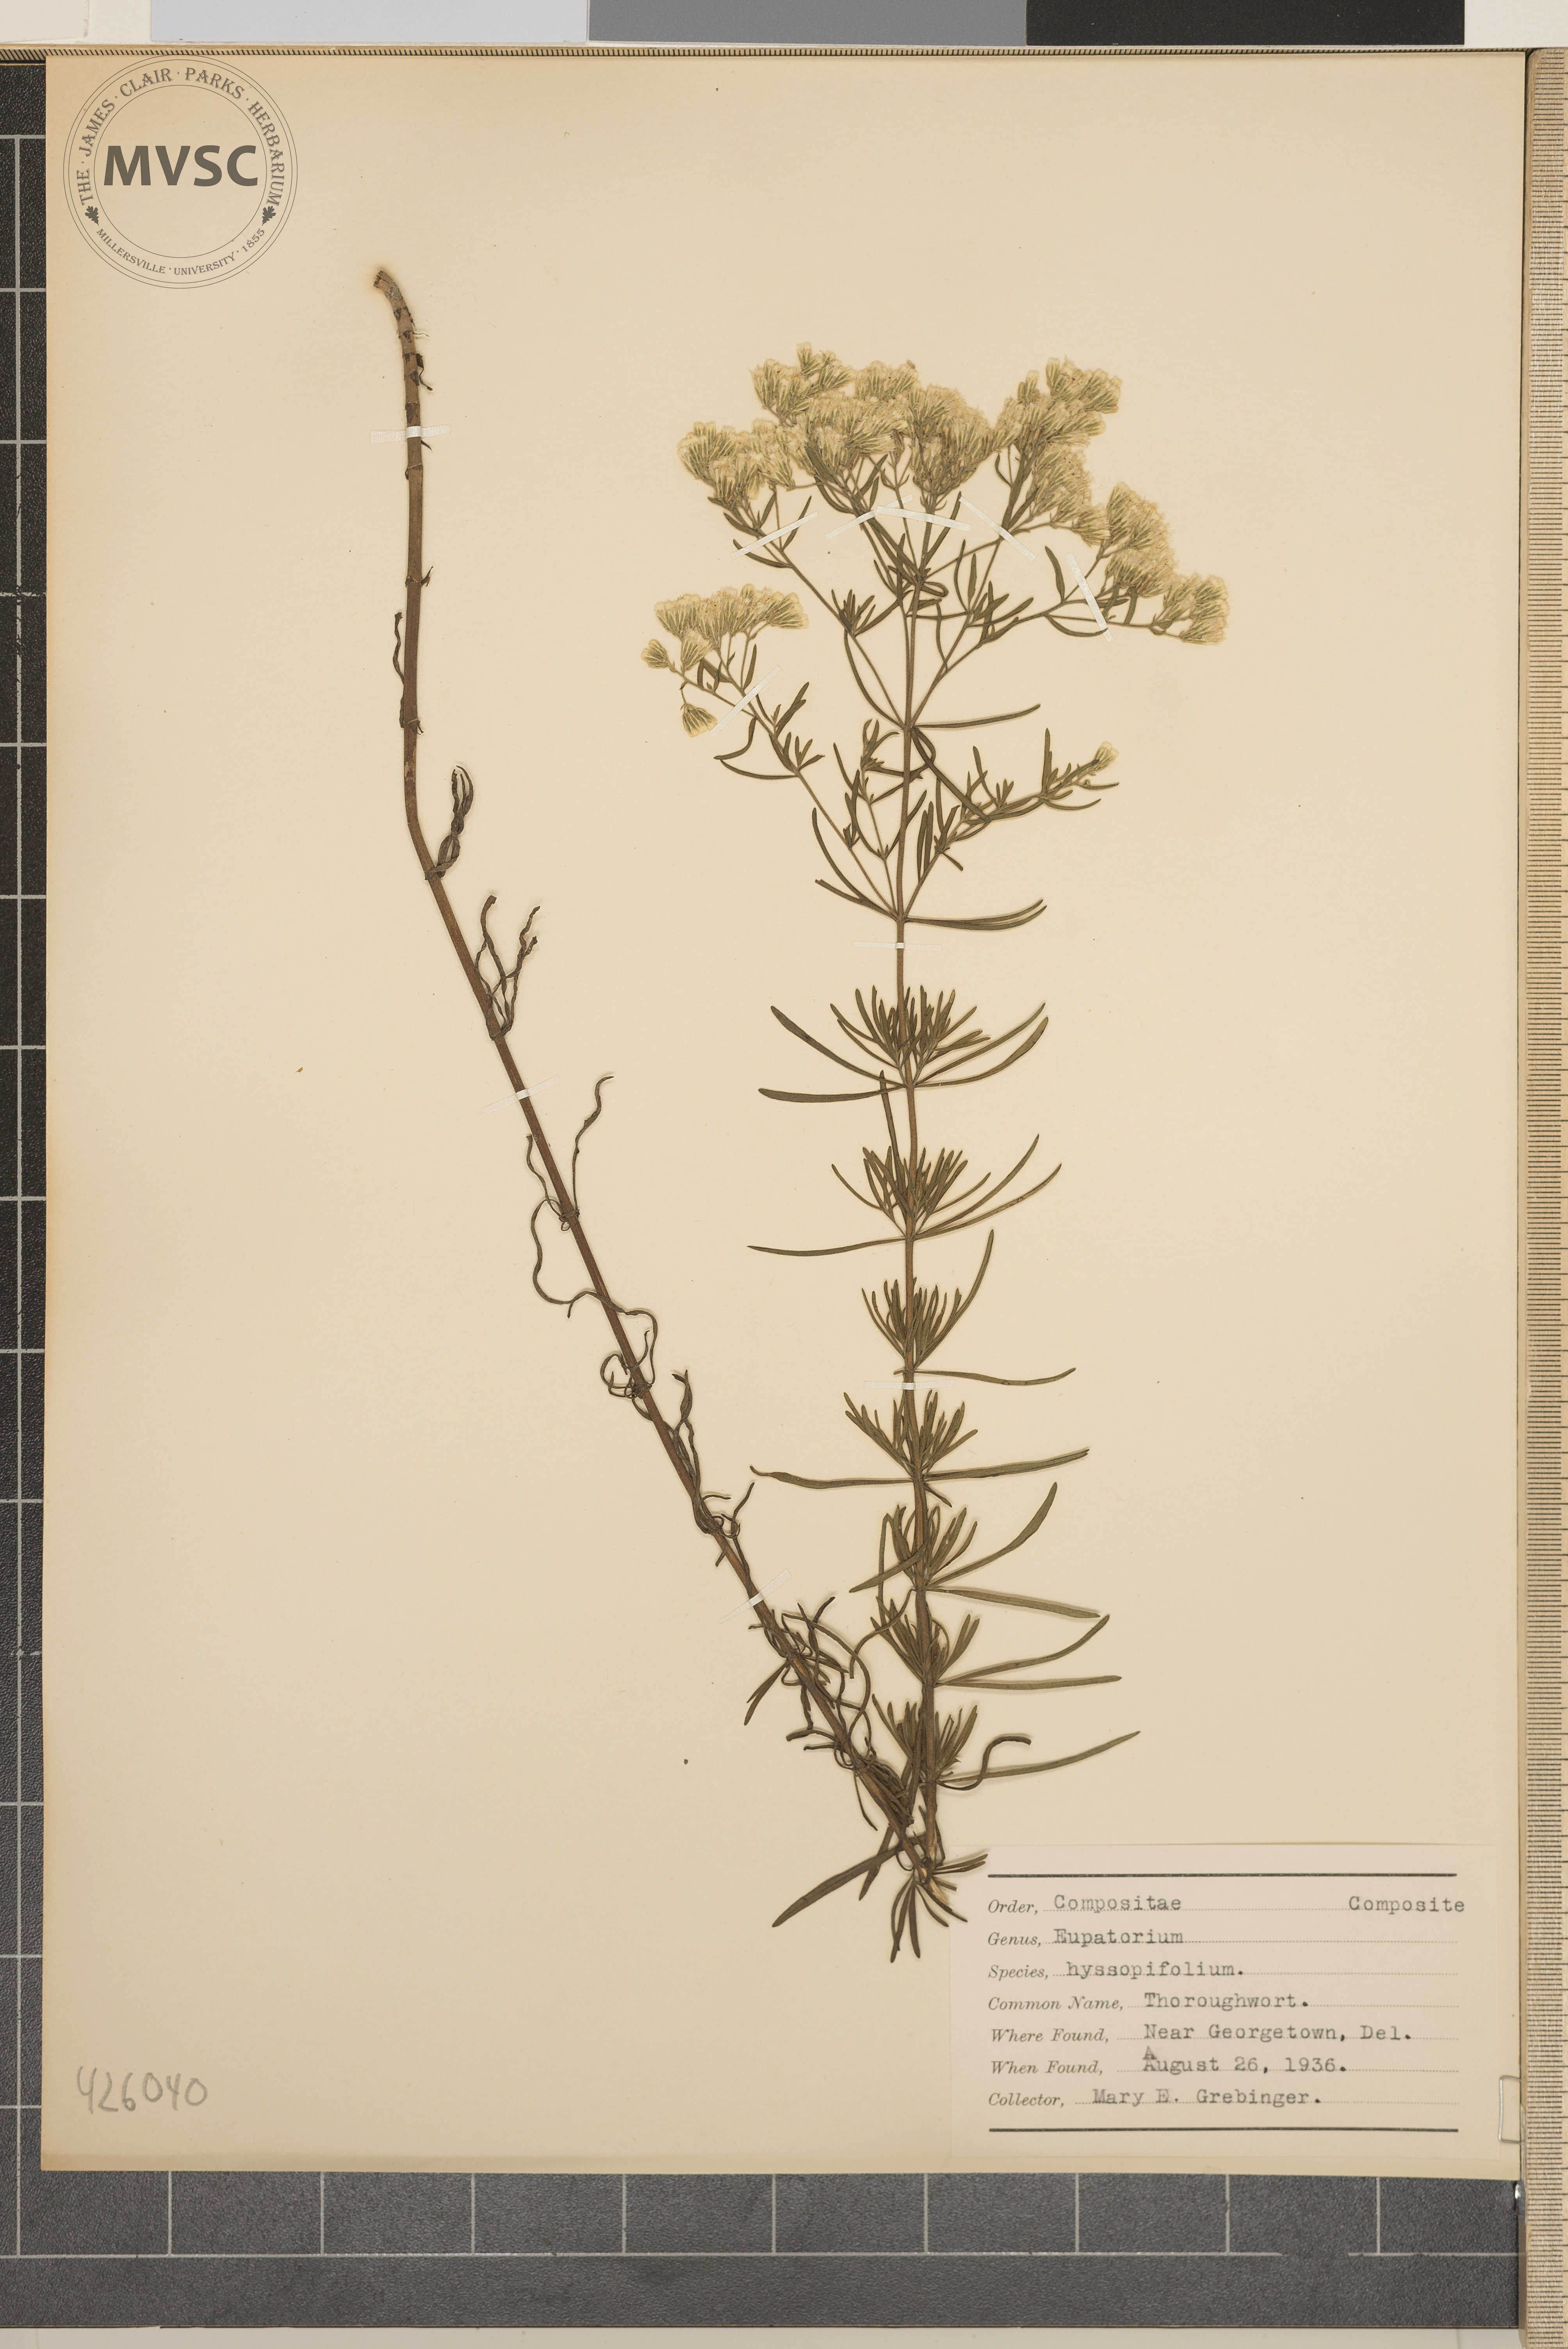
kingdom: Plantae
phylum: Tracheophyta
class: Magnoliopsida
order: Asterales
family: Asteraceae
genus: Eupatorium
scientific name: Eupatorium hyssopifolium
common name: Thoroughwort
